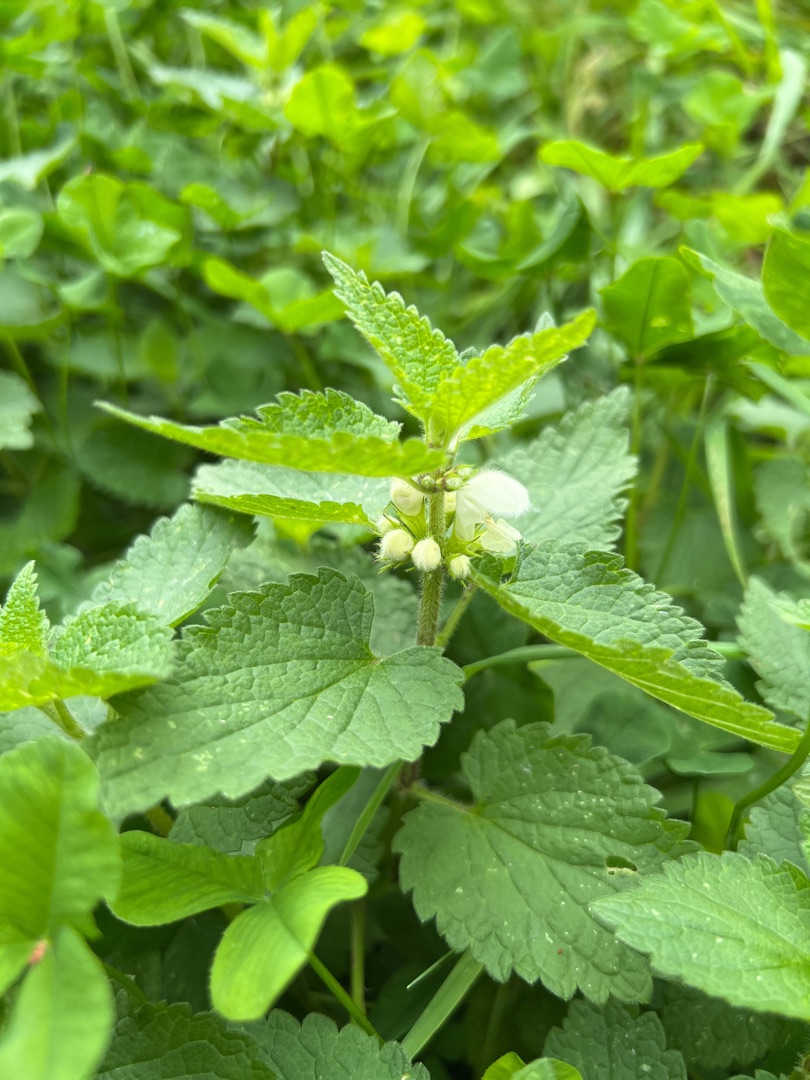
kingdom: Plantae
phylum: Tracheophyta
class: Magnoliopsida
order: Lamiales
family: Lamiaceae
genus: Lamium
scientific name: Lamium album
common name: Døvnælde
